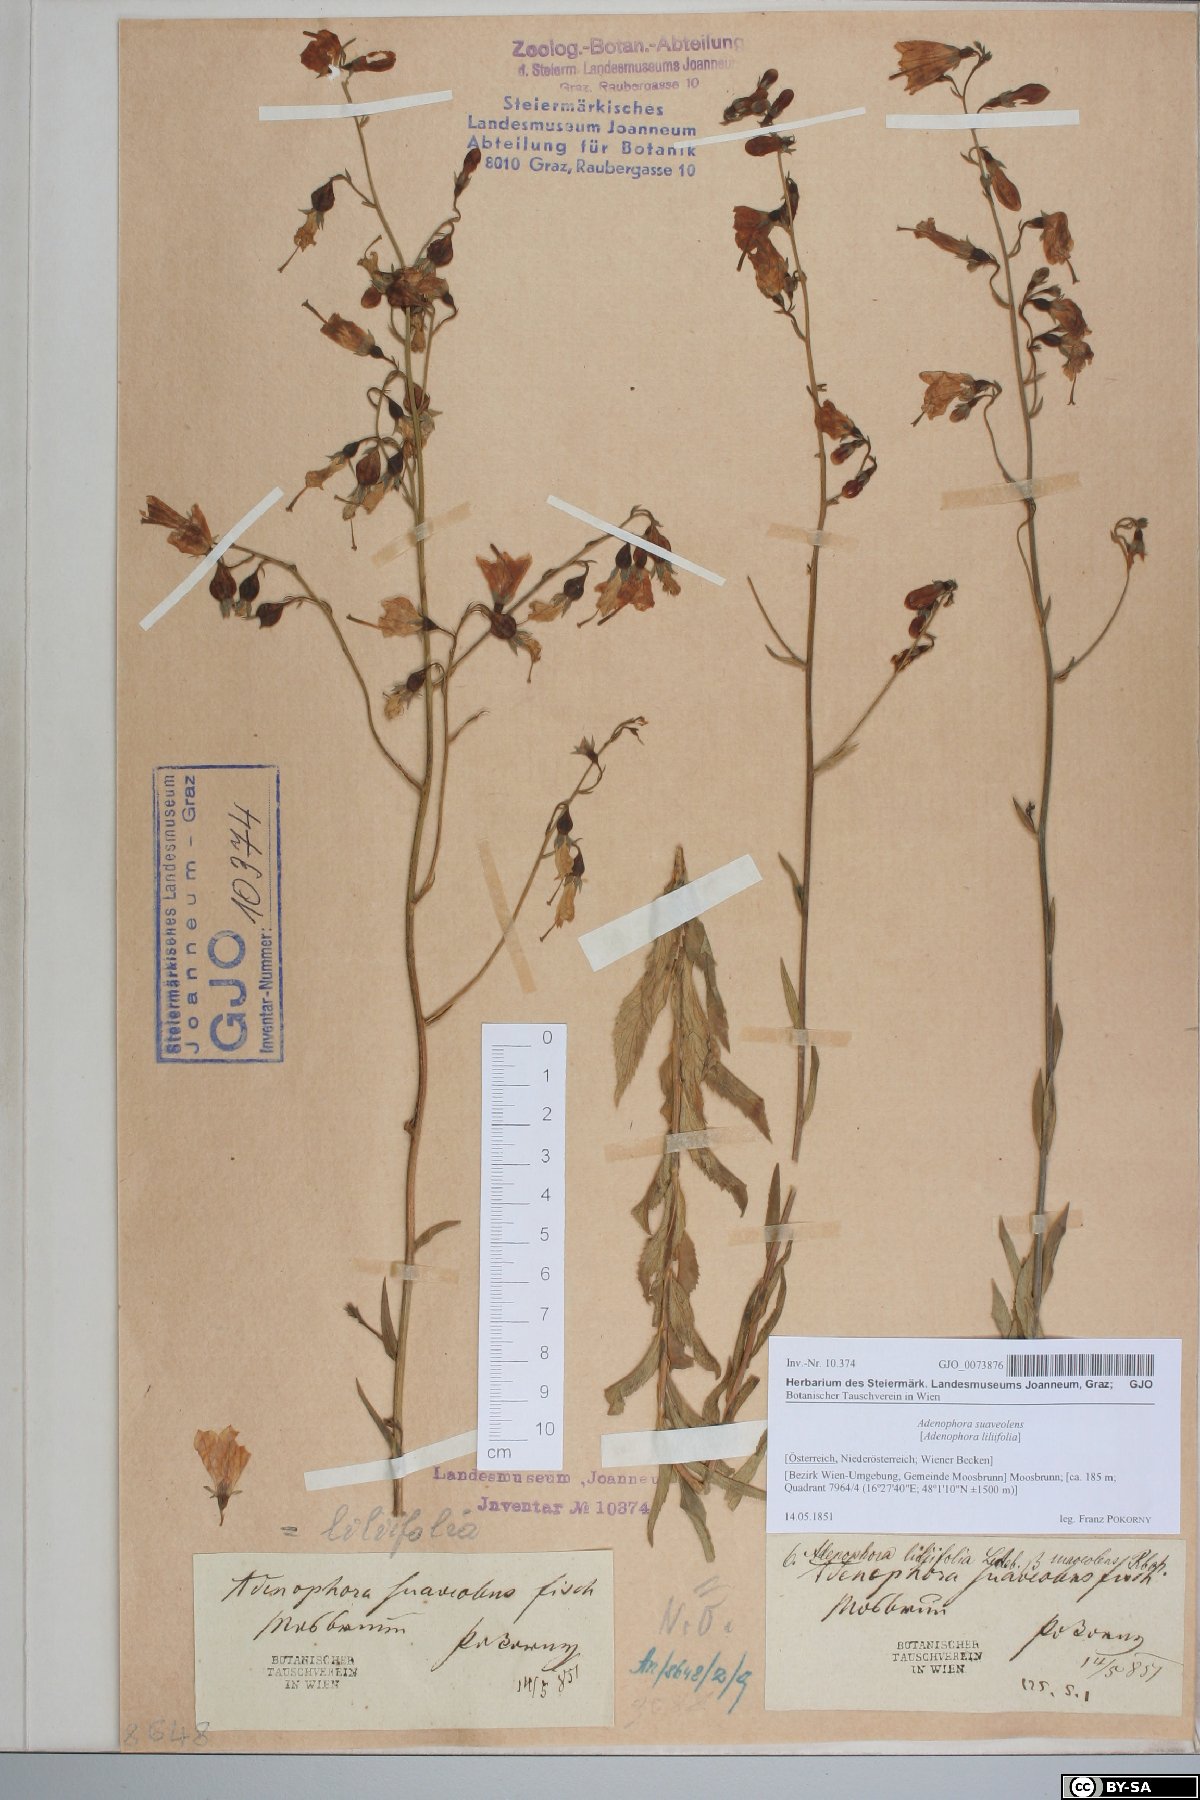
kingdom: Plantae
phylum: Tracheophyta
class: Magnoliopsida
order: Asterales
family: Campanulaceae
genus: Adenophora
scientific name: Adenophora liliifolia
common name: Lilyleaf ladybells
